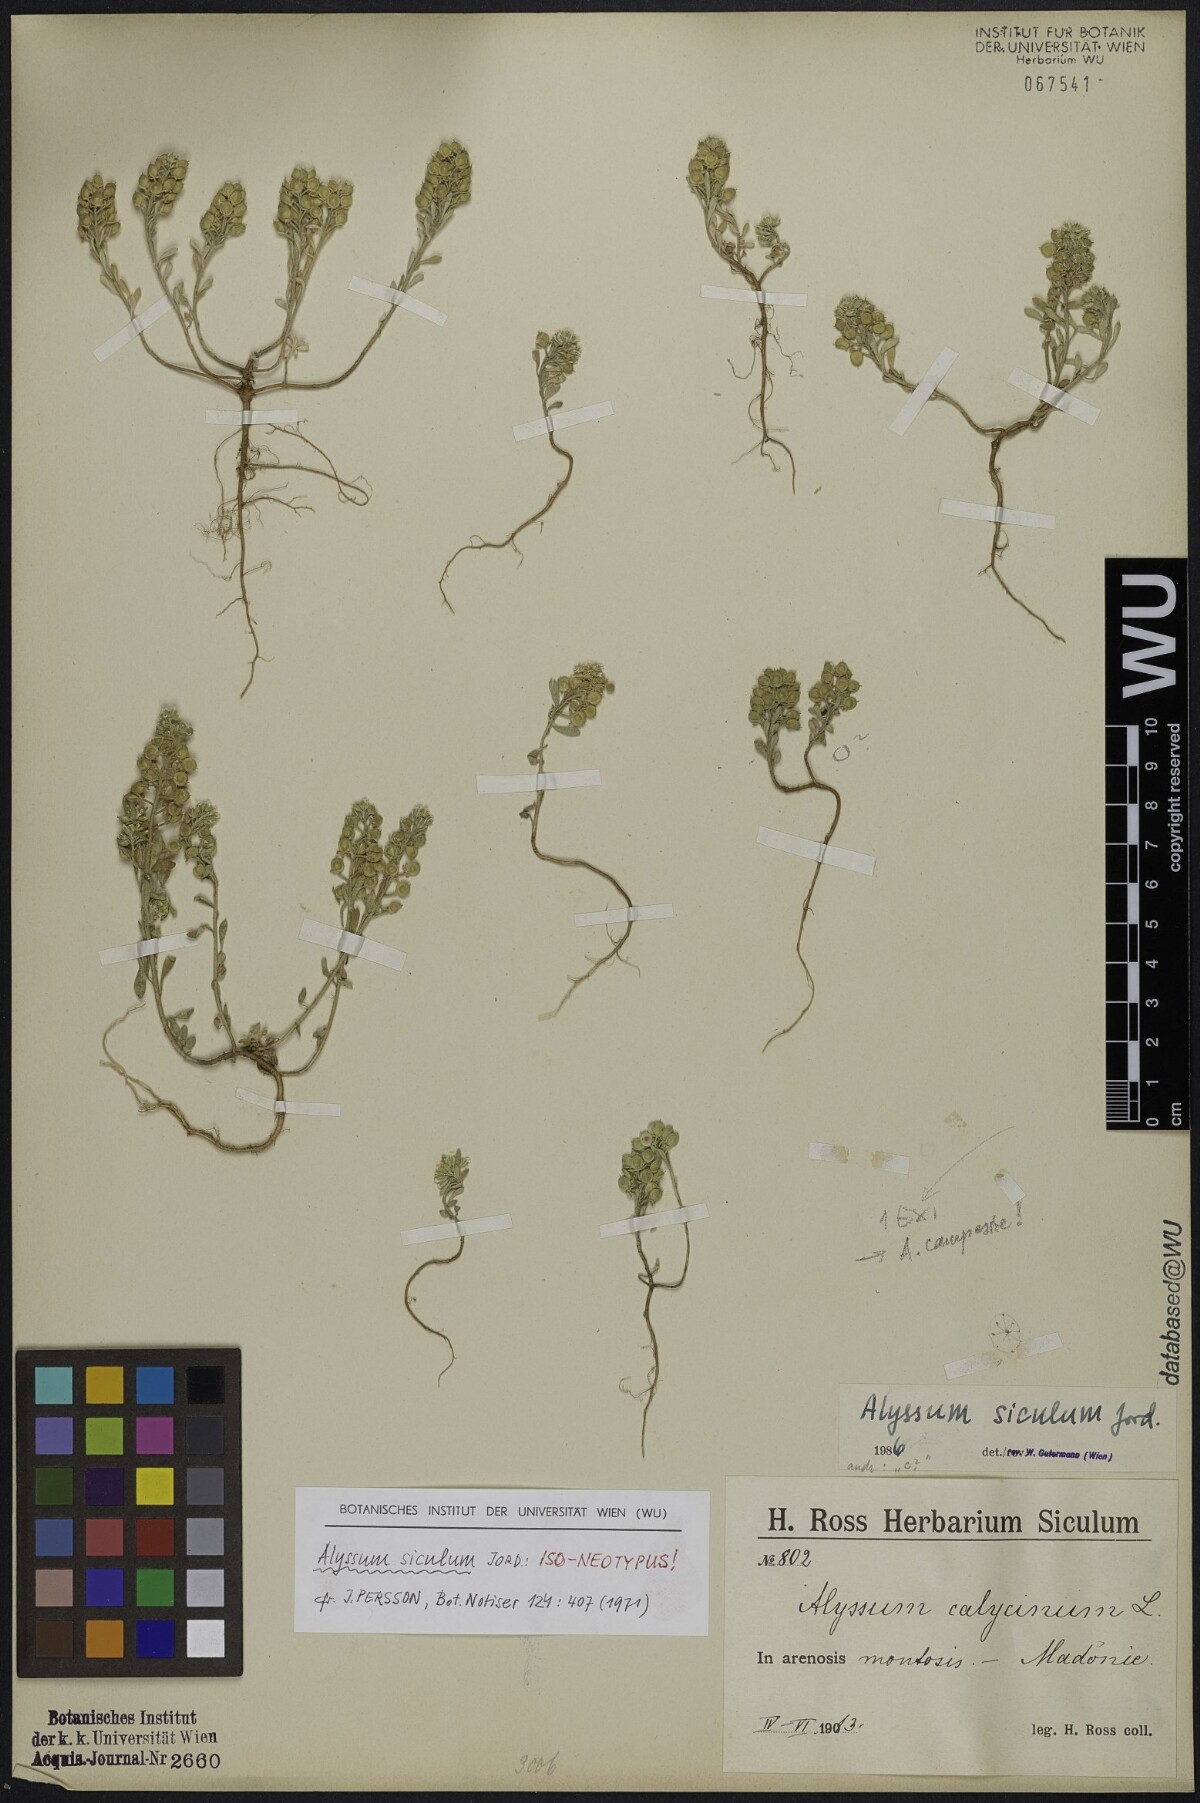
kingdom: Plantae
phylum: Tracheophyta
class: Magnoliopsida
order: Brassicales
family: Brassicaceae
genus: Alyssum
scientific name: Alyssum siculum
